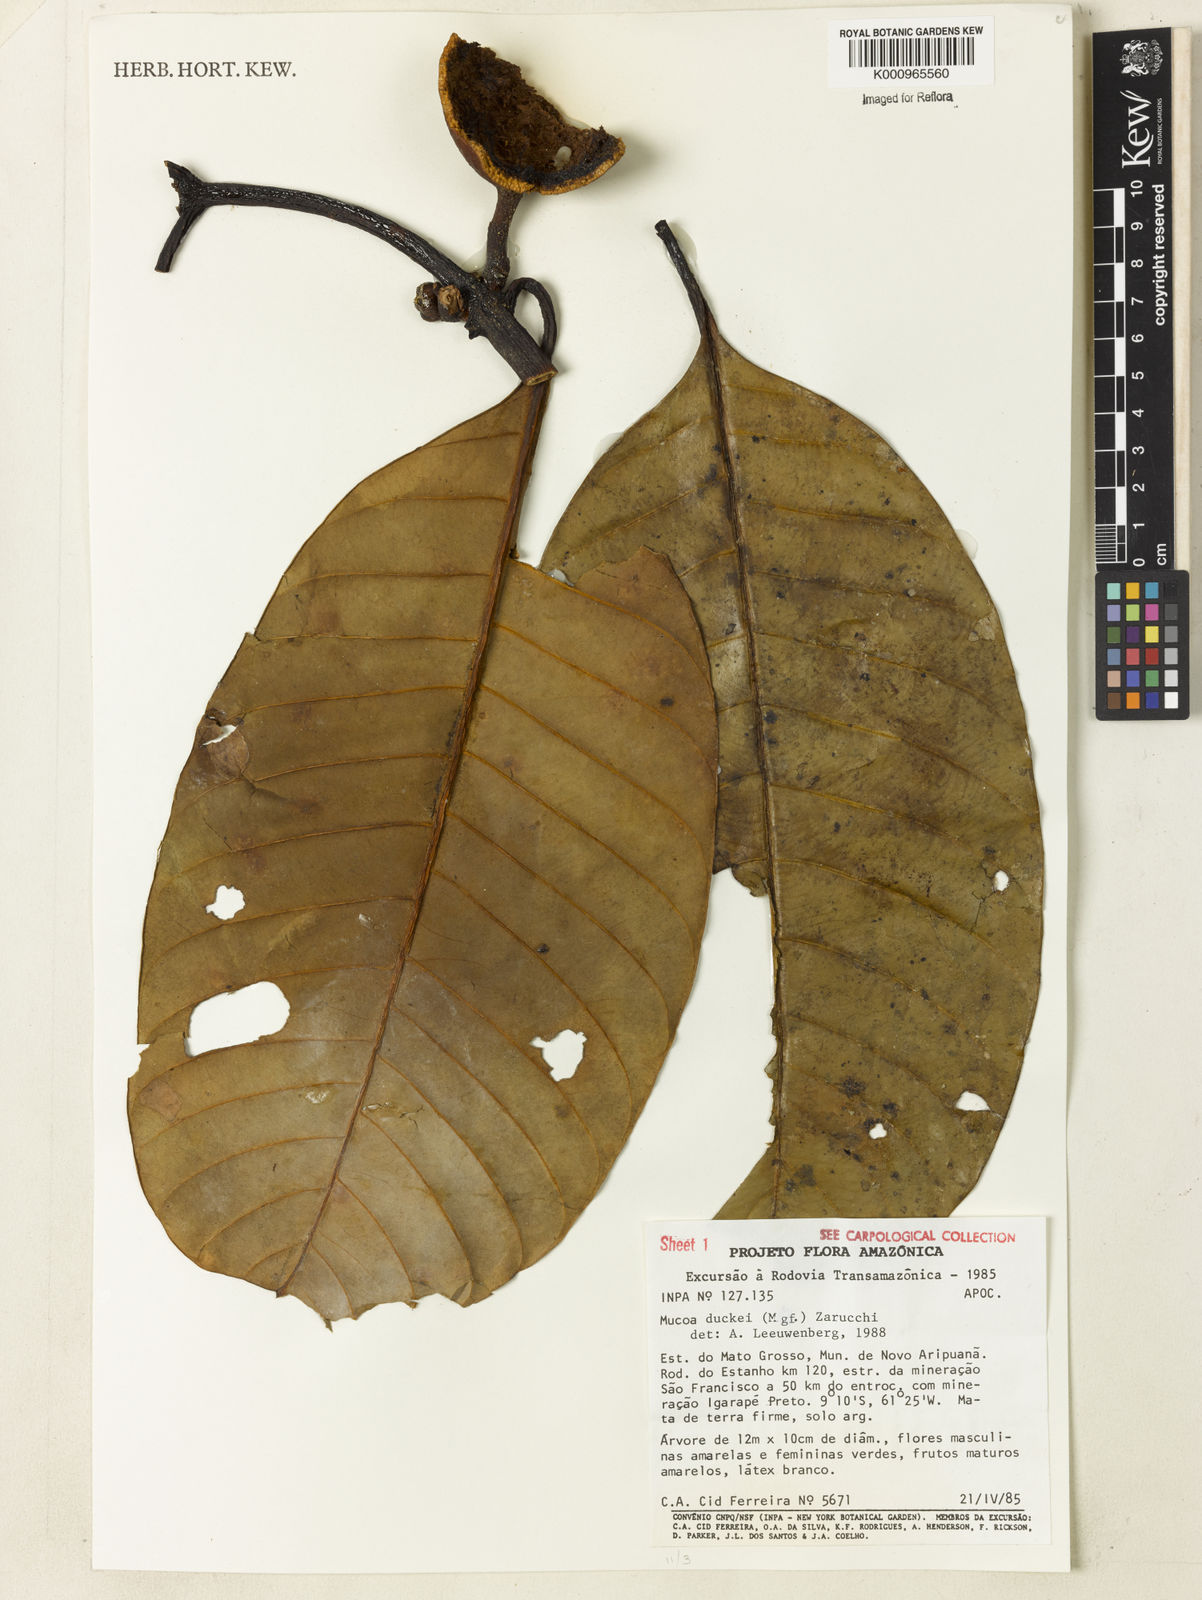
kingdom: Plantae
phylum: Tracheophyta
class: Magnoliopsida
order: Gentianales
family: Apocynaceae
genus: Mucoa
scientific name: Mucoa duckei
